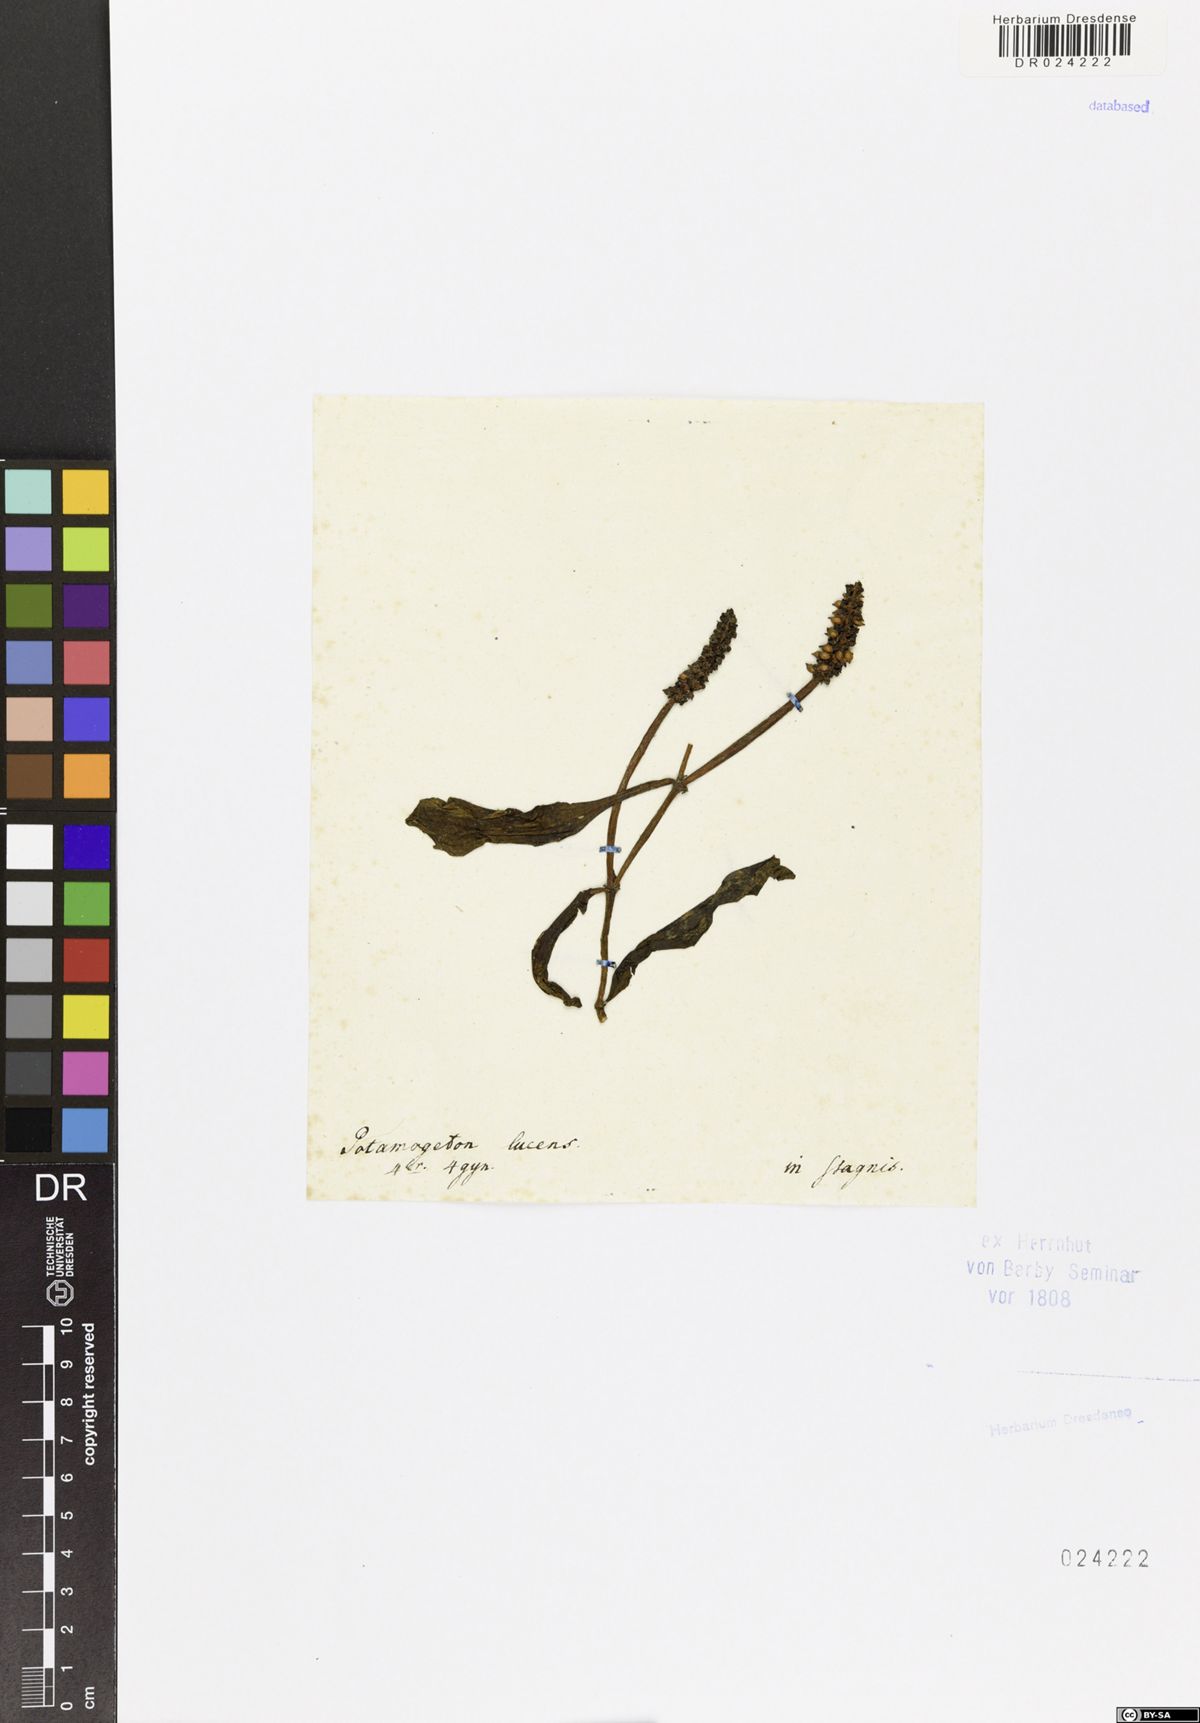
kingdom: Plantae
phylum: Tracheophyta
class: Liliopsida
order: Alismatales
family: Potamogetonaceae
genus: Potamogeton
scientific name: Potamogeton lucens
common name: Shining pondweed
